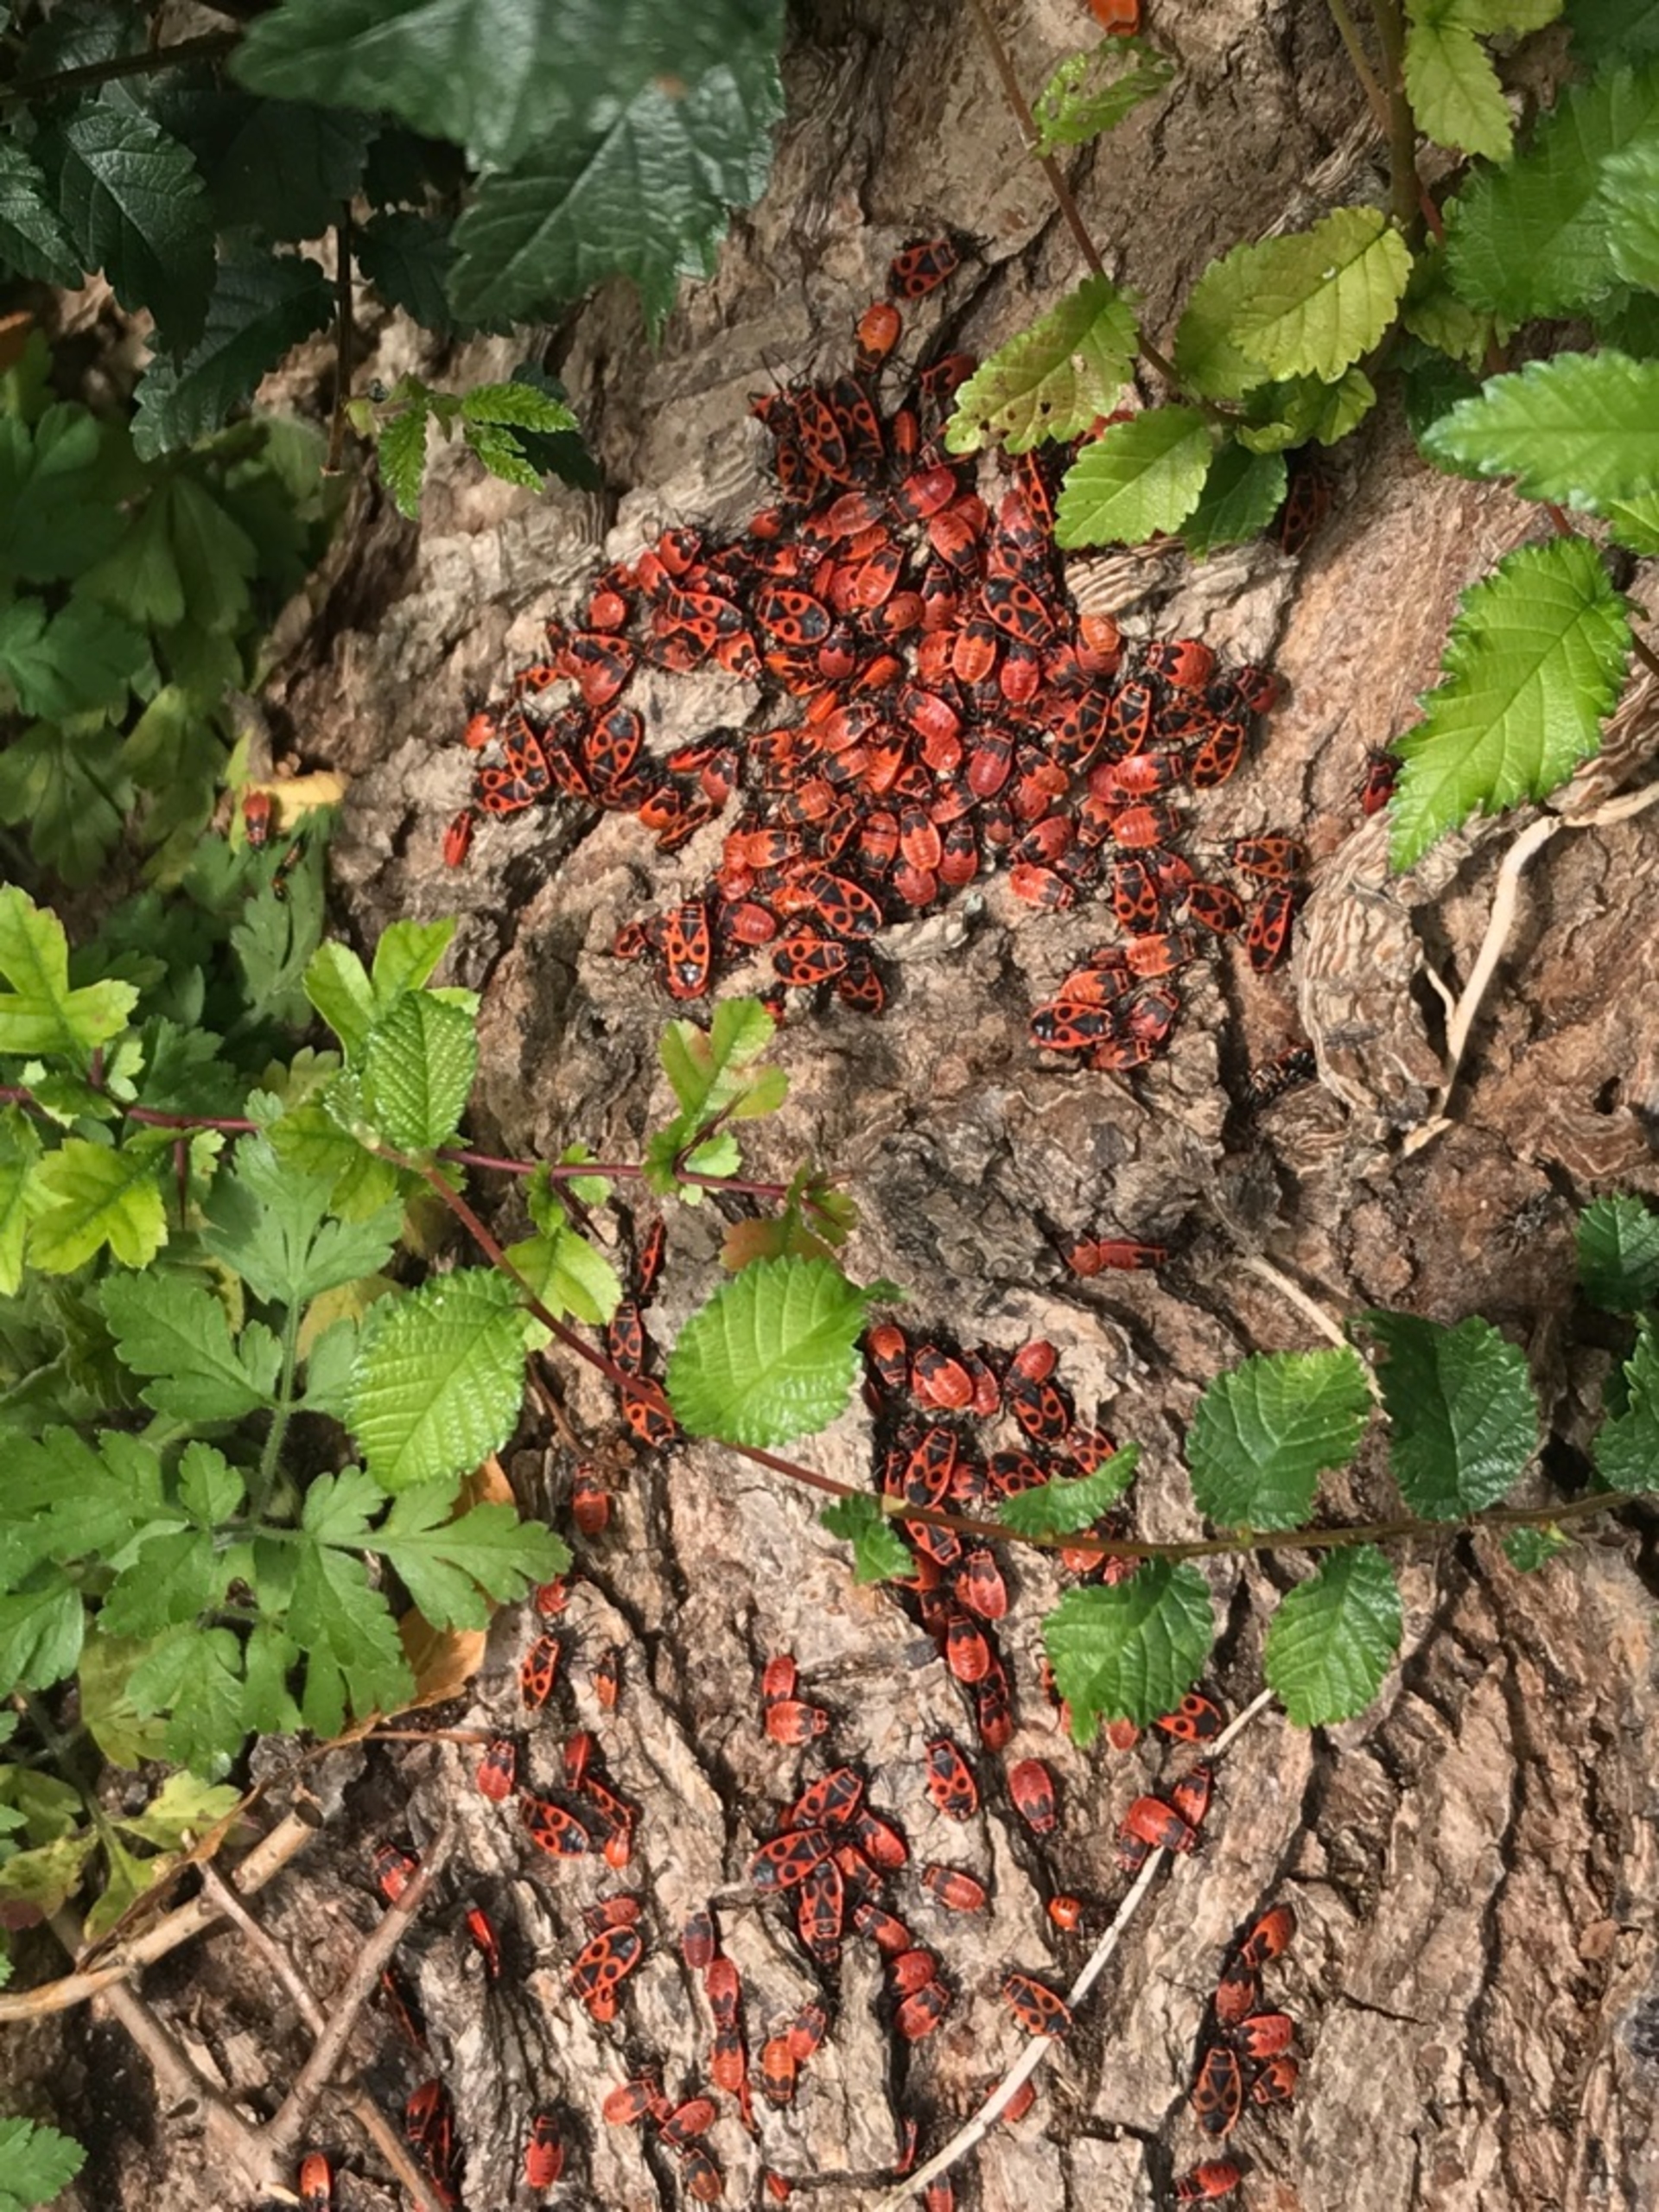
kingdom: Animalia
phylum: Arthropoda
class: Insecta
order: Hemiptera
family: Pyrrhocoridae
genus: Pyrrhocoris
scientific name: Pyrrhocoris apterus
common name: Ildtæge
